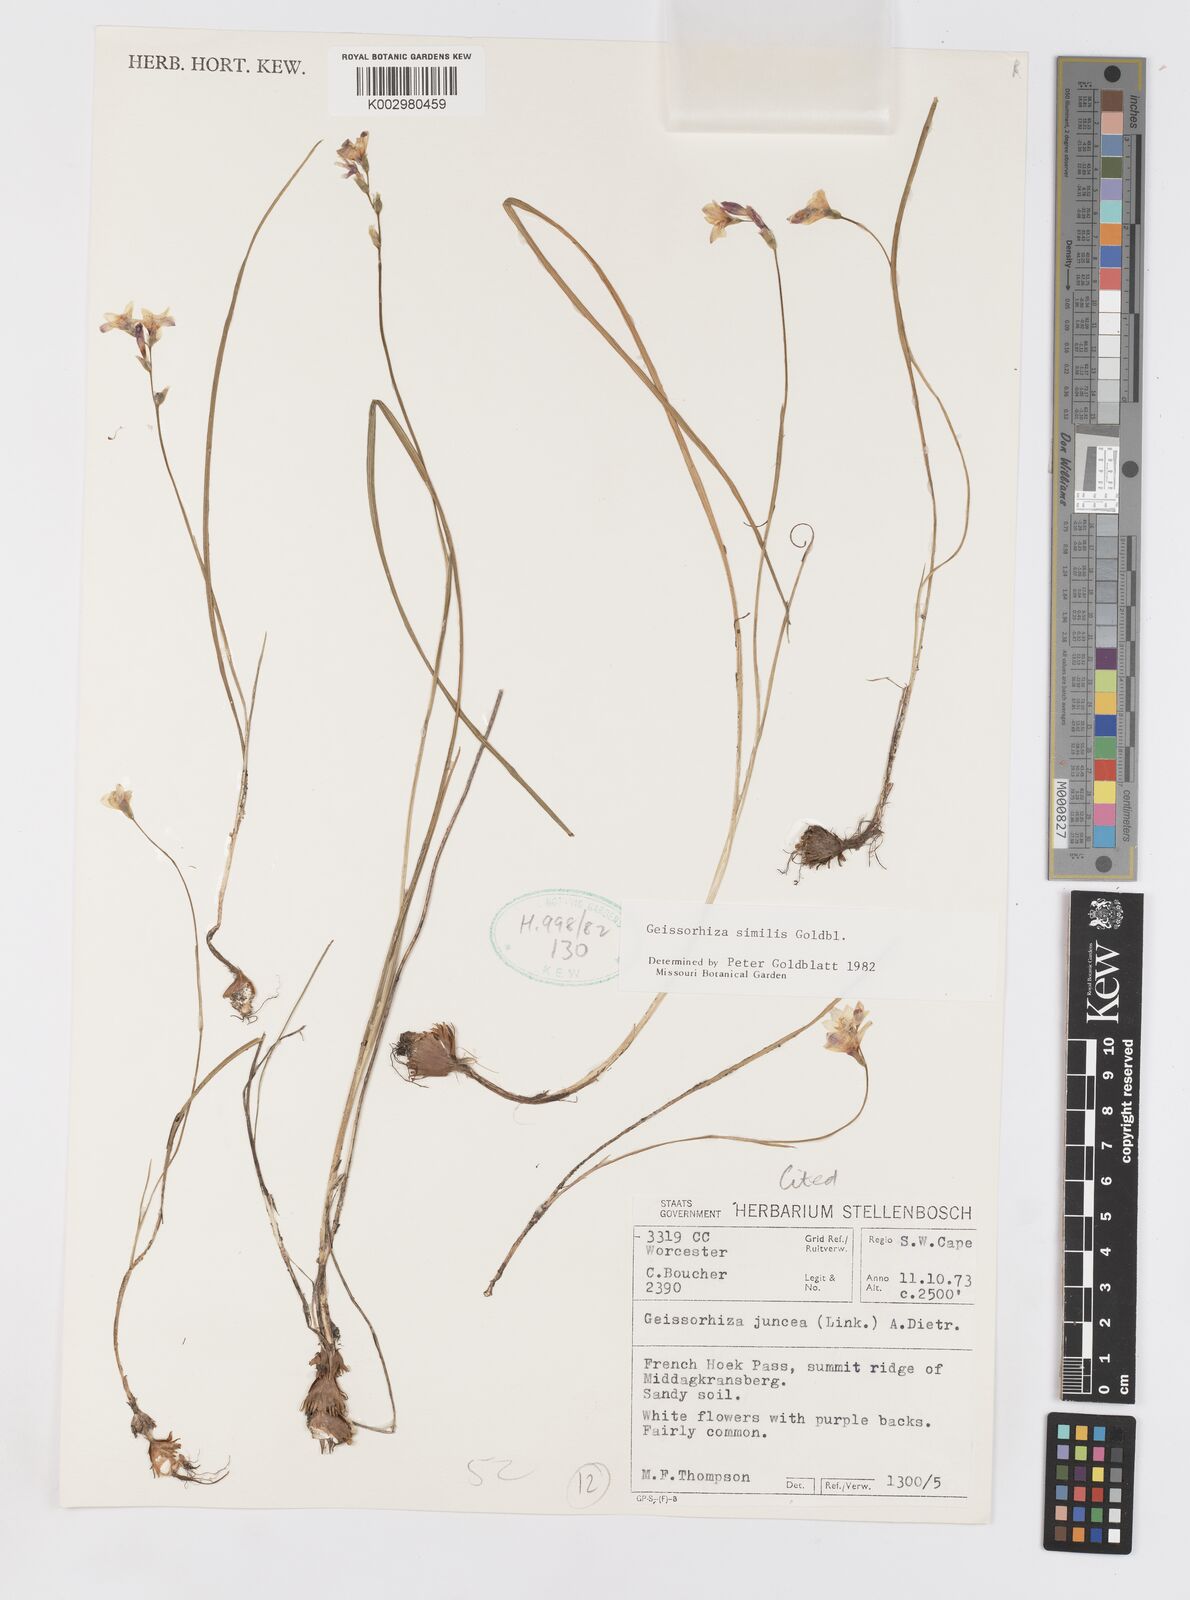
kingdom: Plantae
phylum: Tracheophyta
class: Liliopsida
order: Asparagales
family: Iridaceae
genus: Geissorhiza
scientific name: Geissorhiza similis
